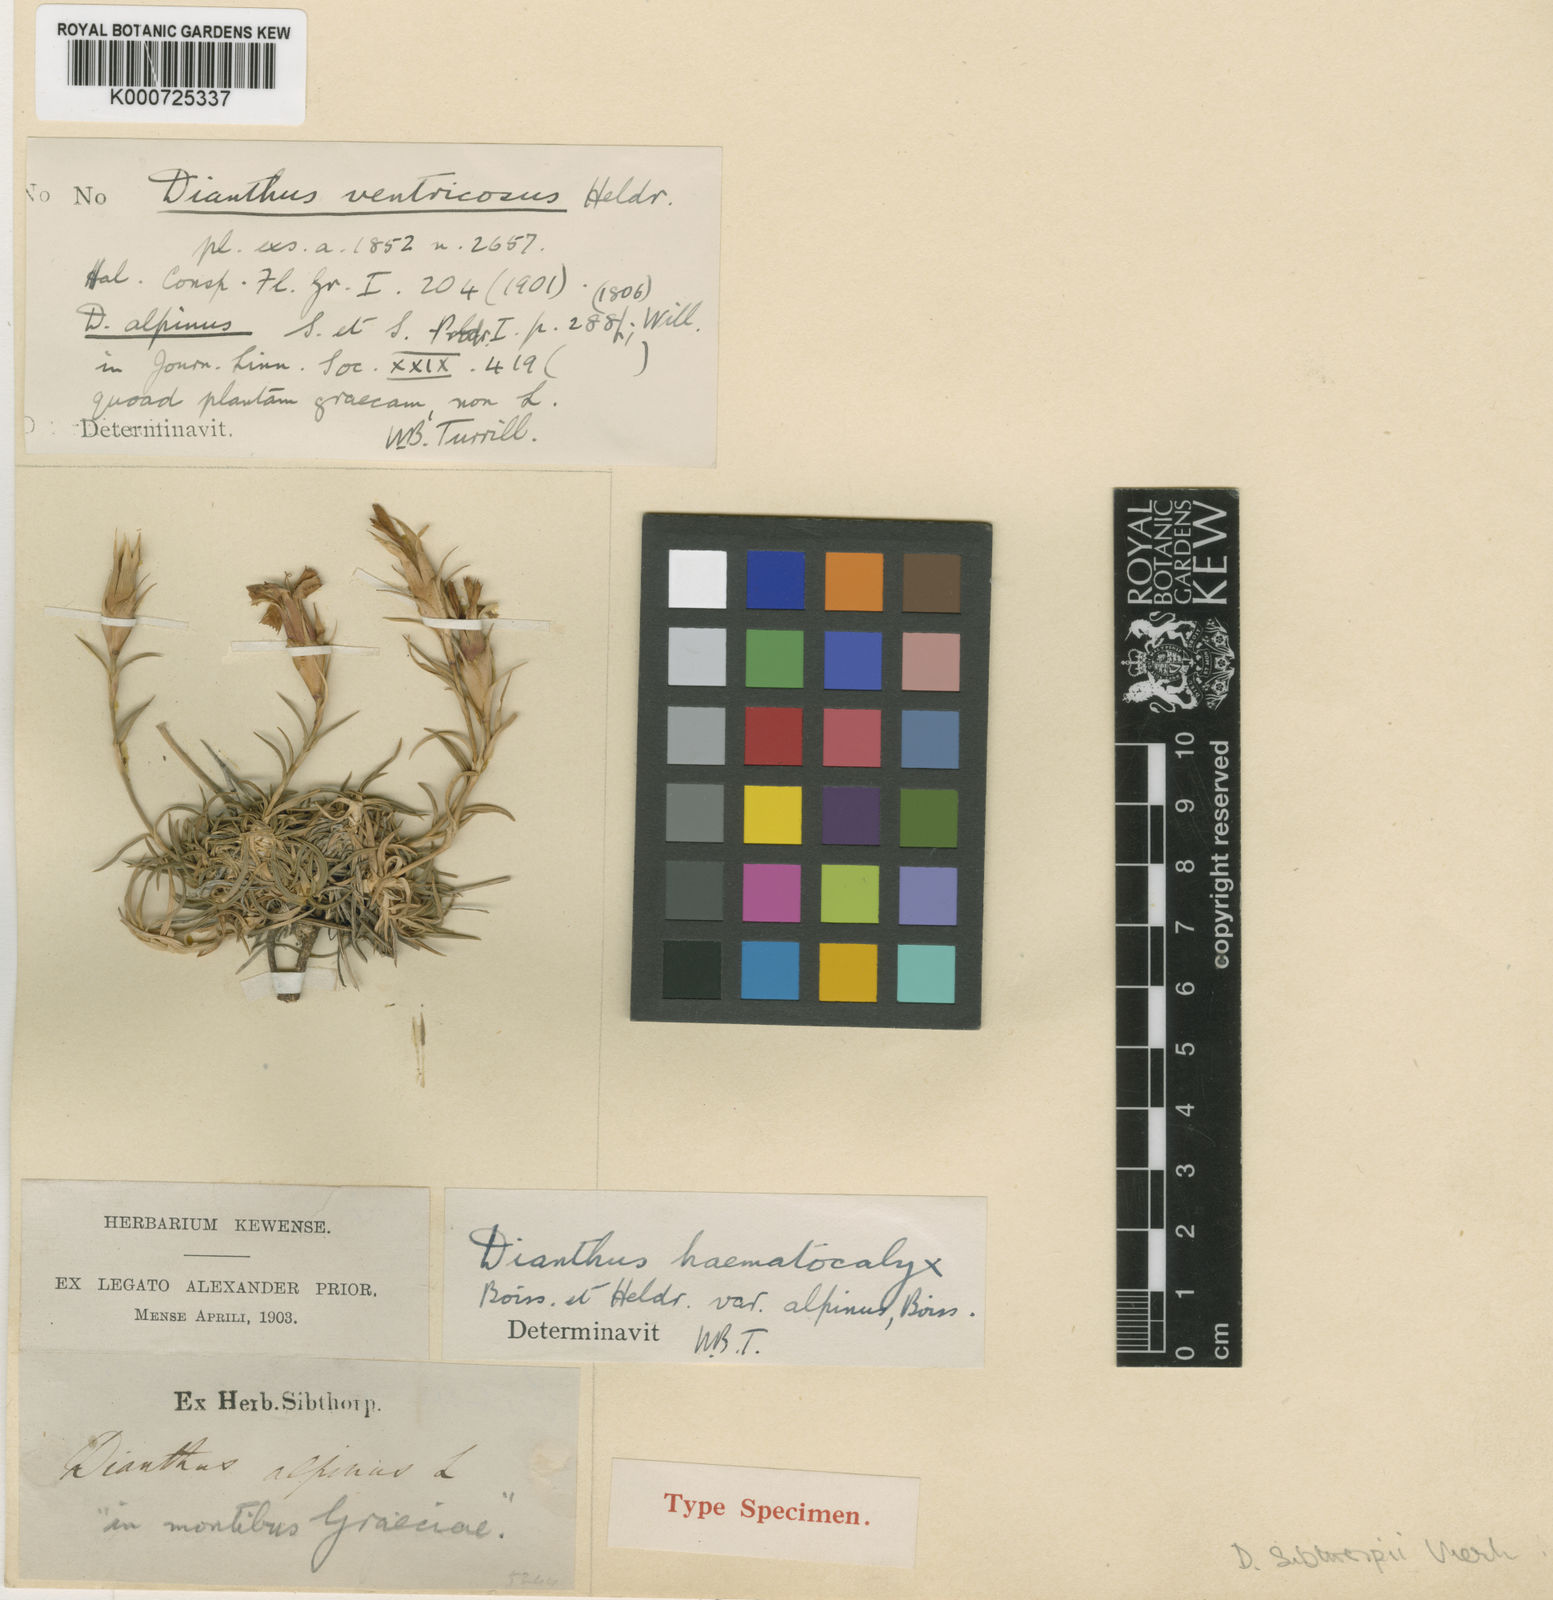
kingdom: Plantae
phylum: Tracheophyta
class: Magnoliopsida
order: Caryophyllales
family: Caryophyllaceae
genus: Dianthus
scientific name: Dianthus haematocalyx
